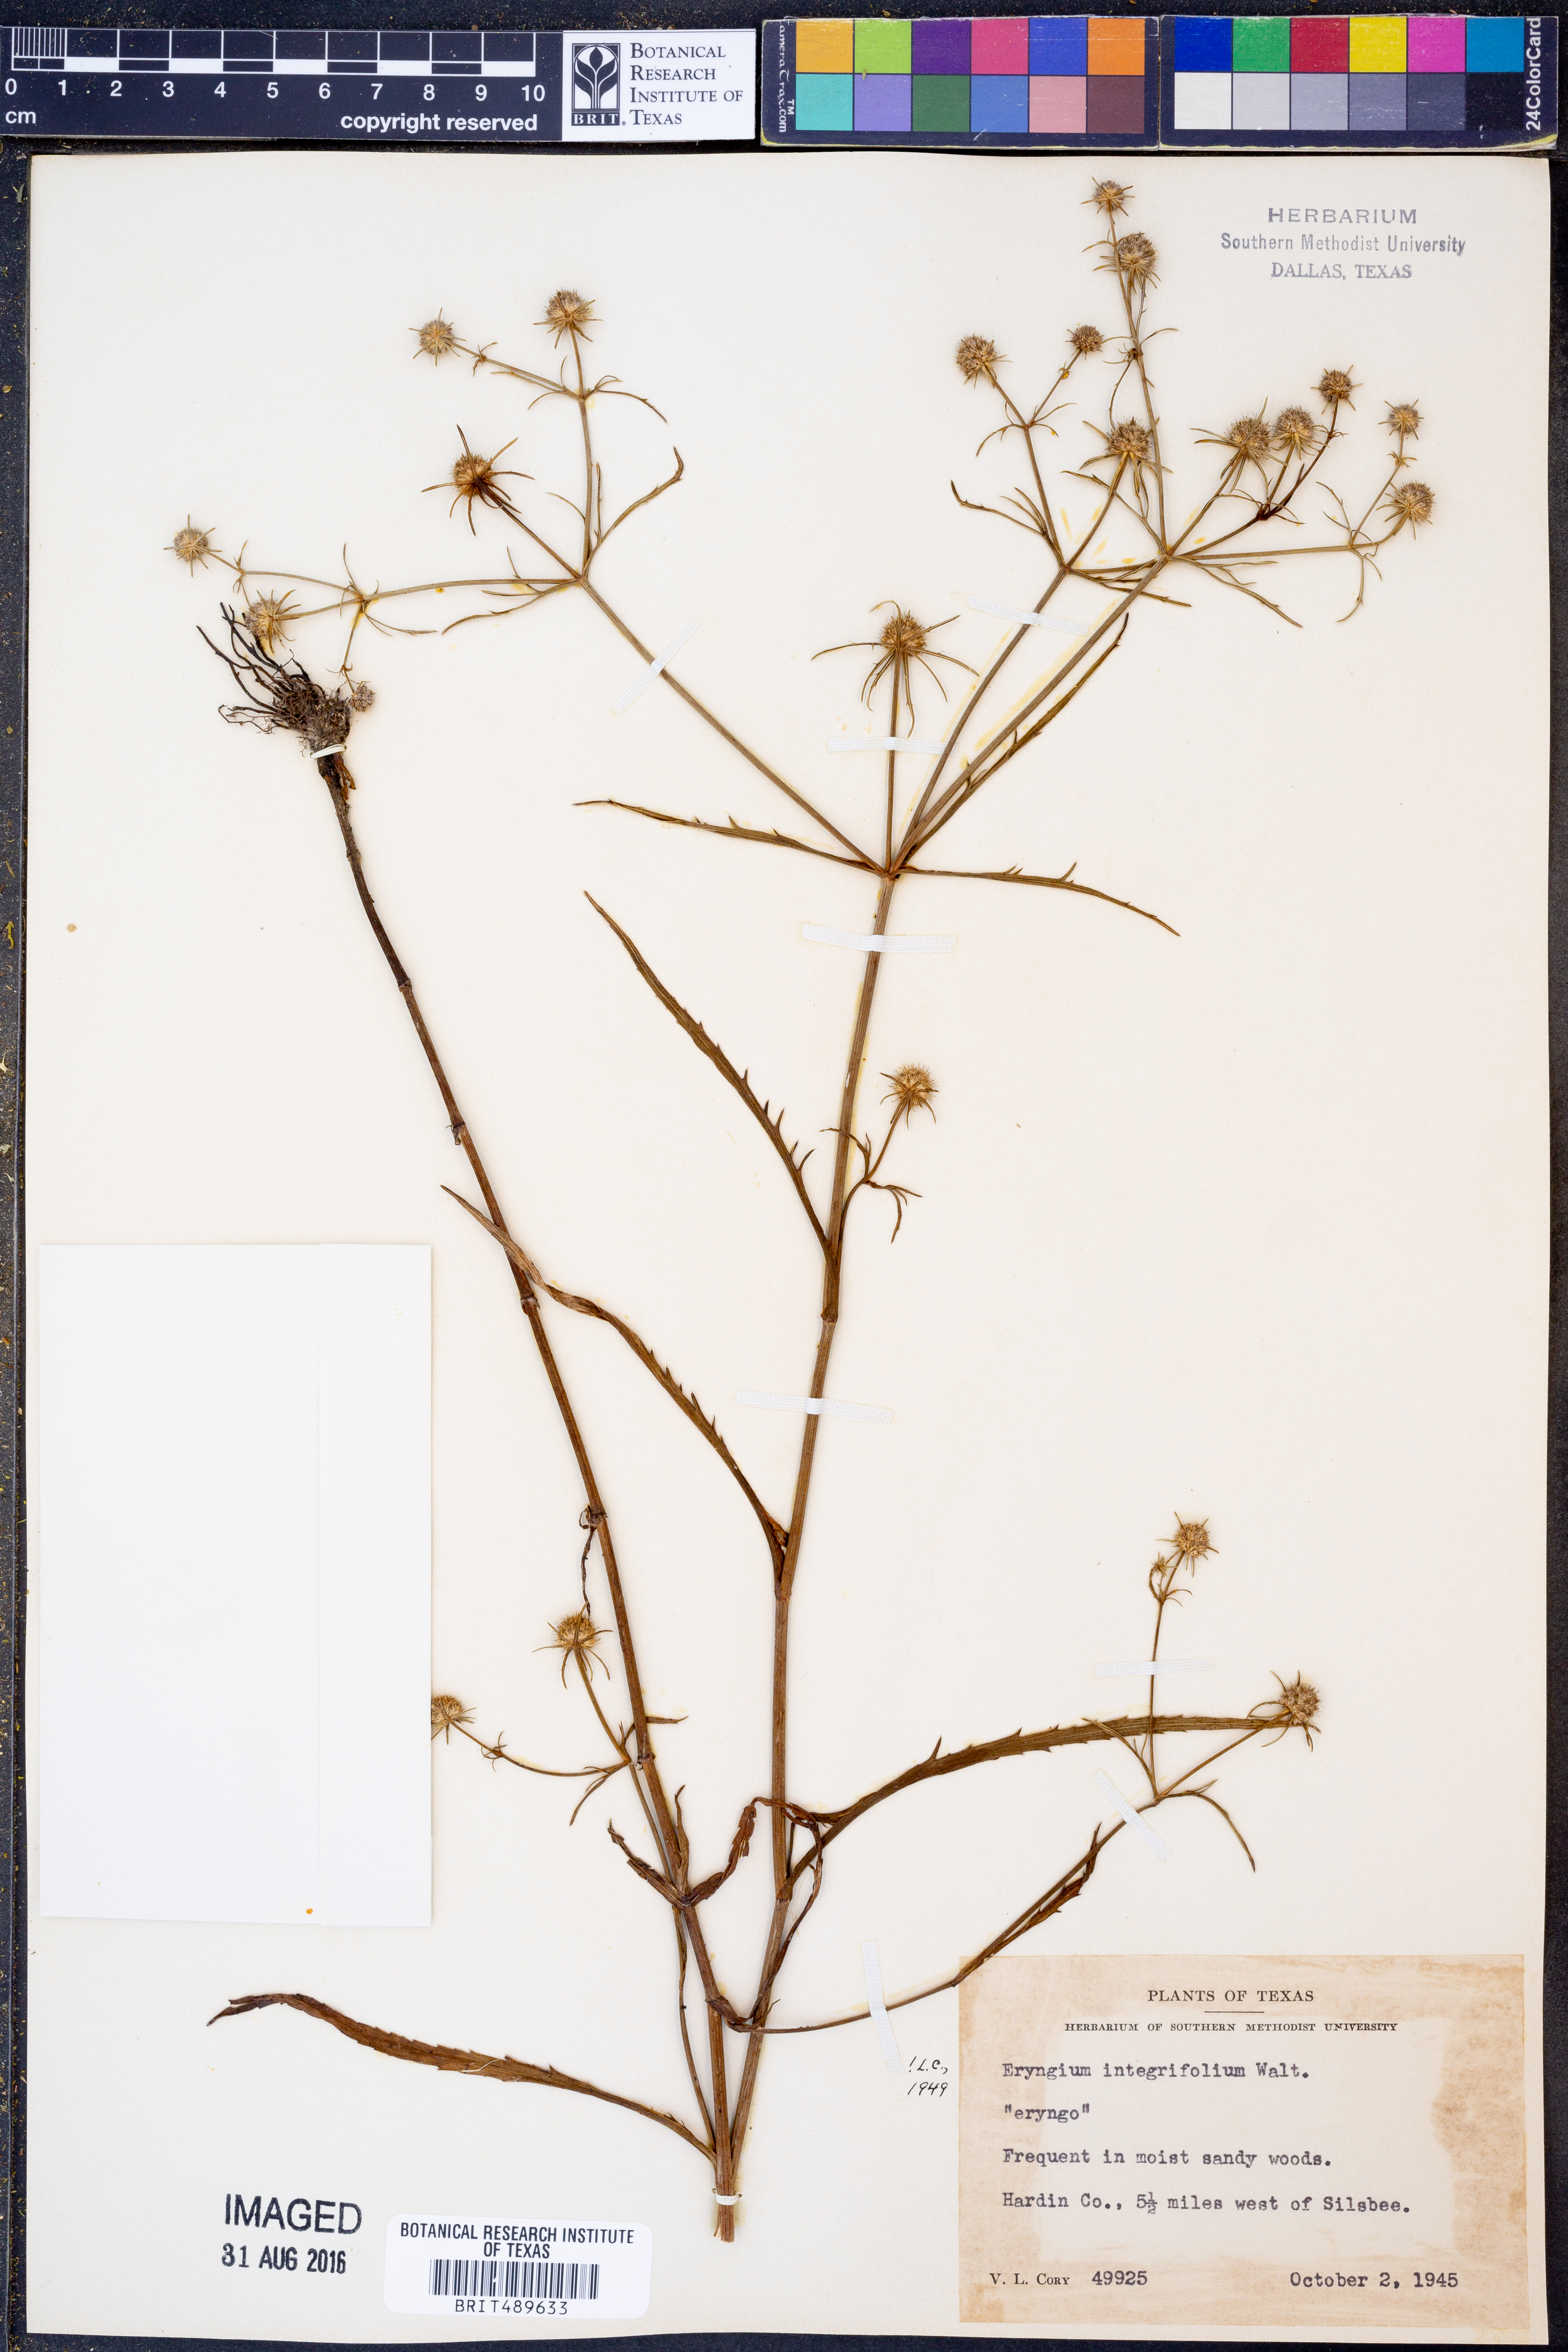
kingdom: Plantae
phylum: Tracheophyta
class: Magnoliopsida
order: Apiales
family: Apiaceae
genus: Eryngium
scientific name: Eryngium integrifolium
